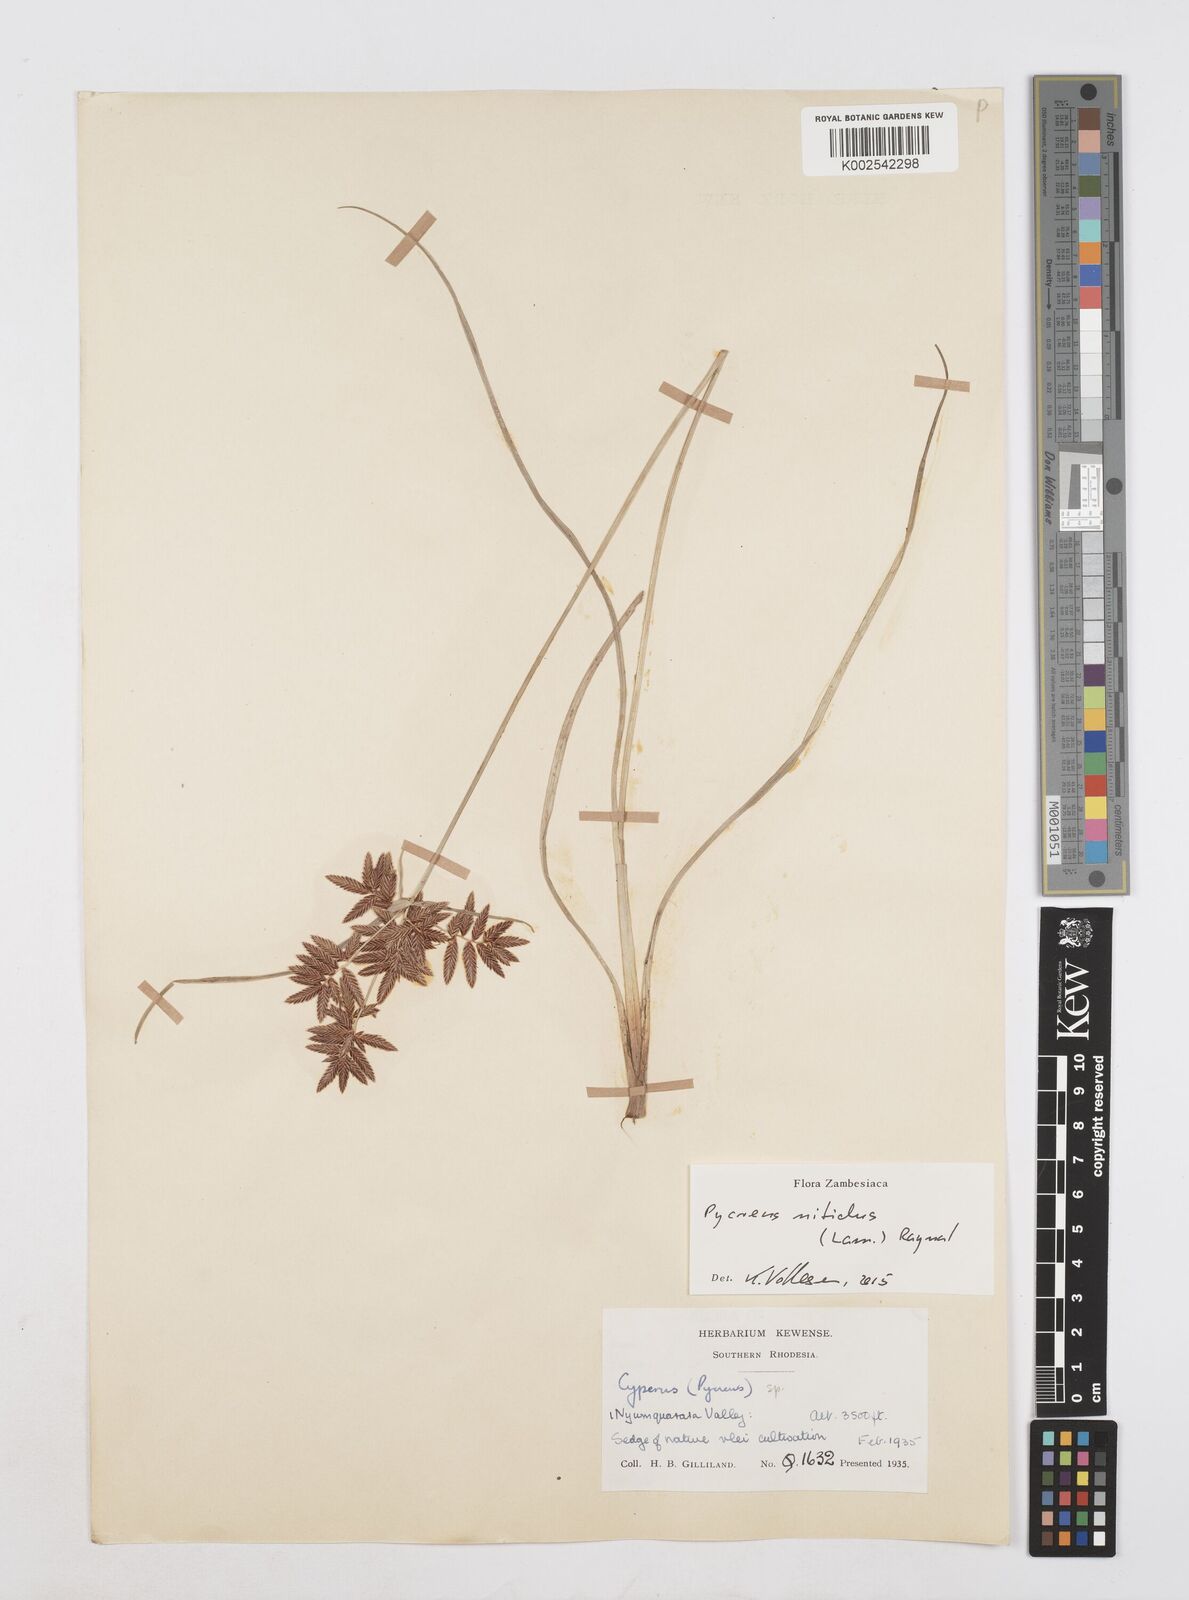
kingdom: Plantae
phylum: Tracheophyta
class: Liliopsida
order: Poales
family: Cyperaceae
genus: Cyperus
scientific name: Cyperus nitidus
